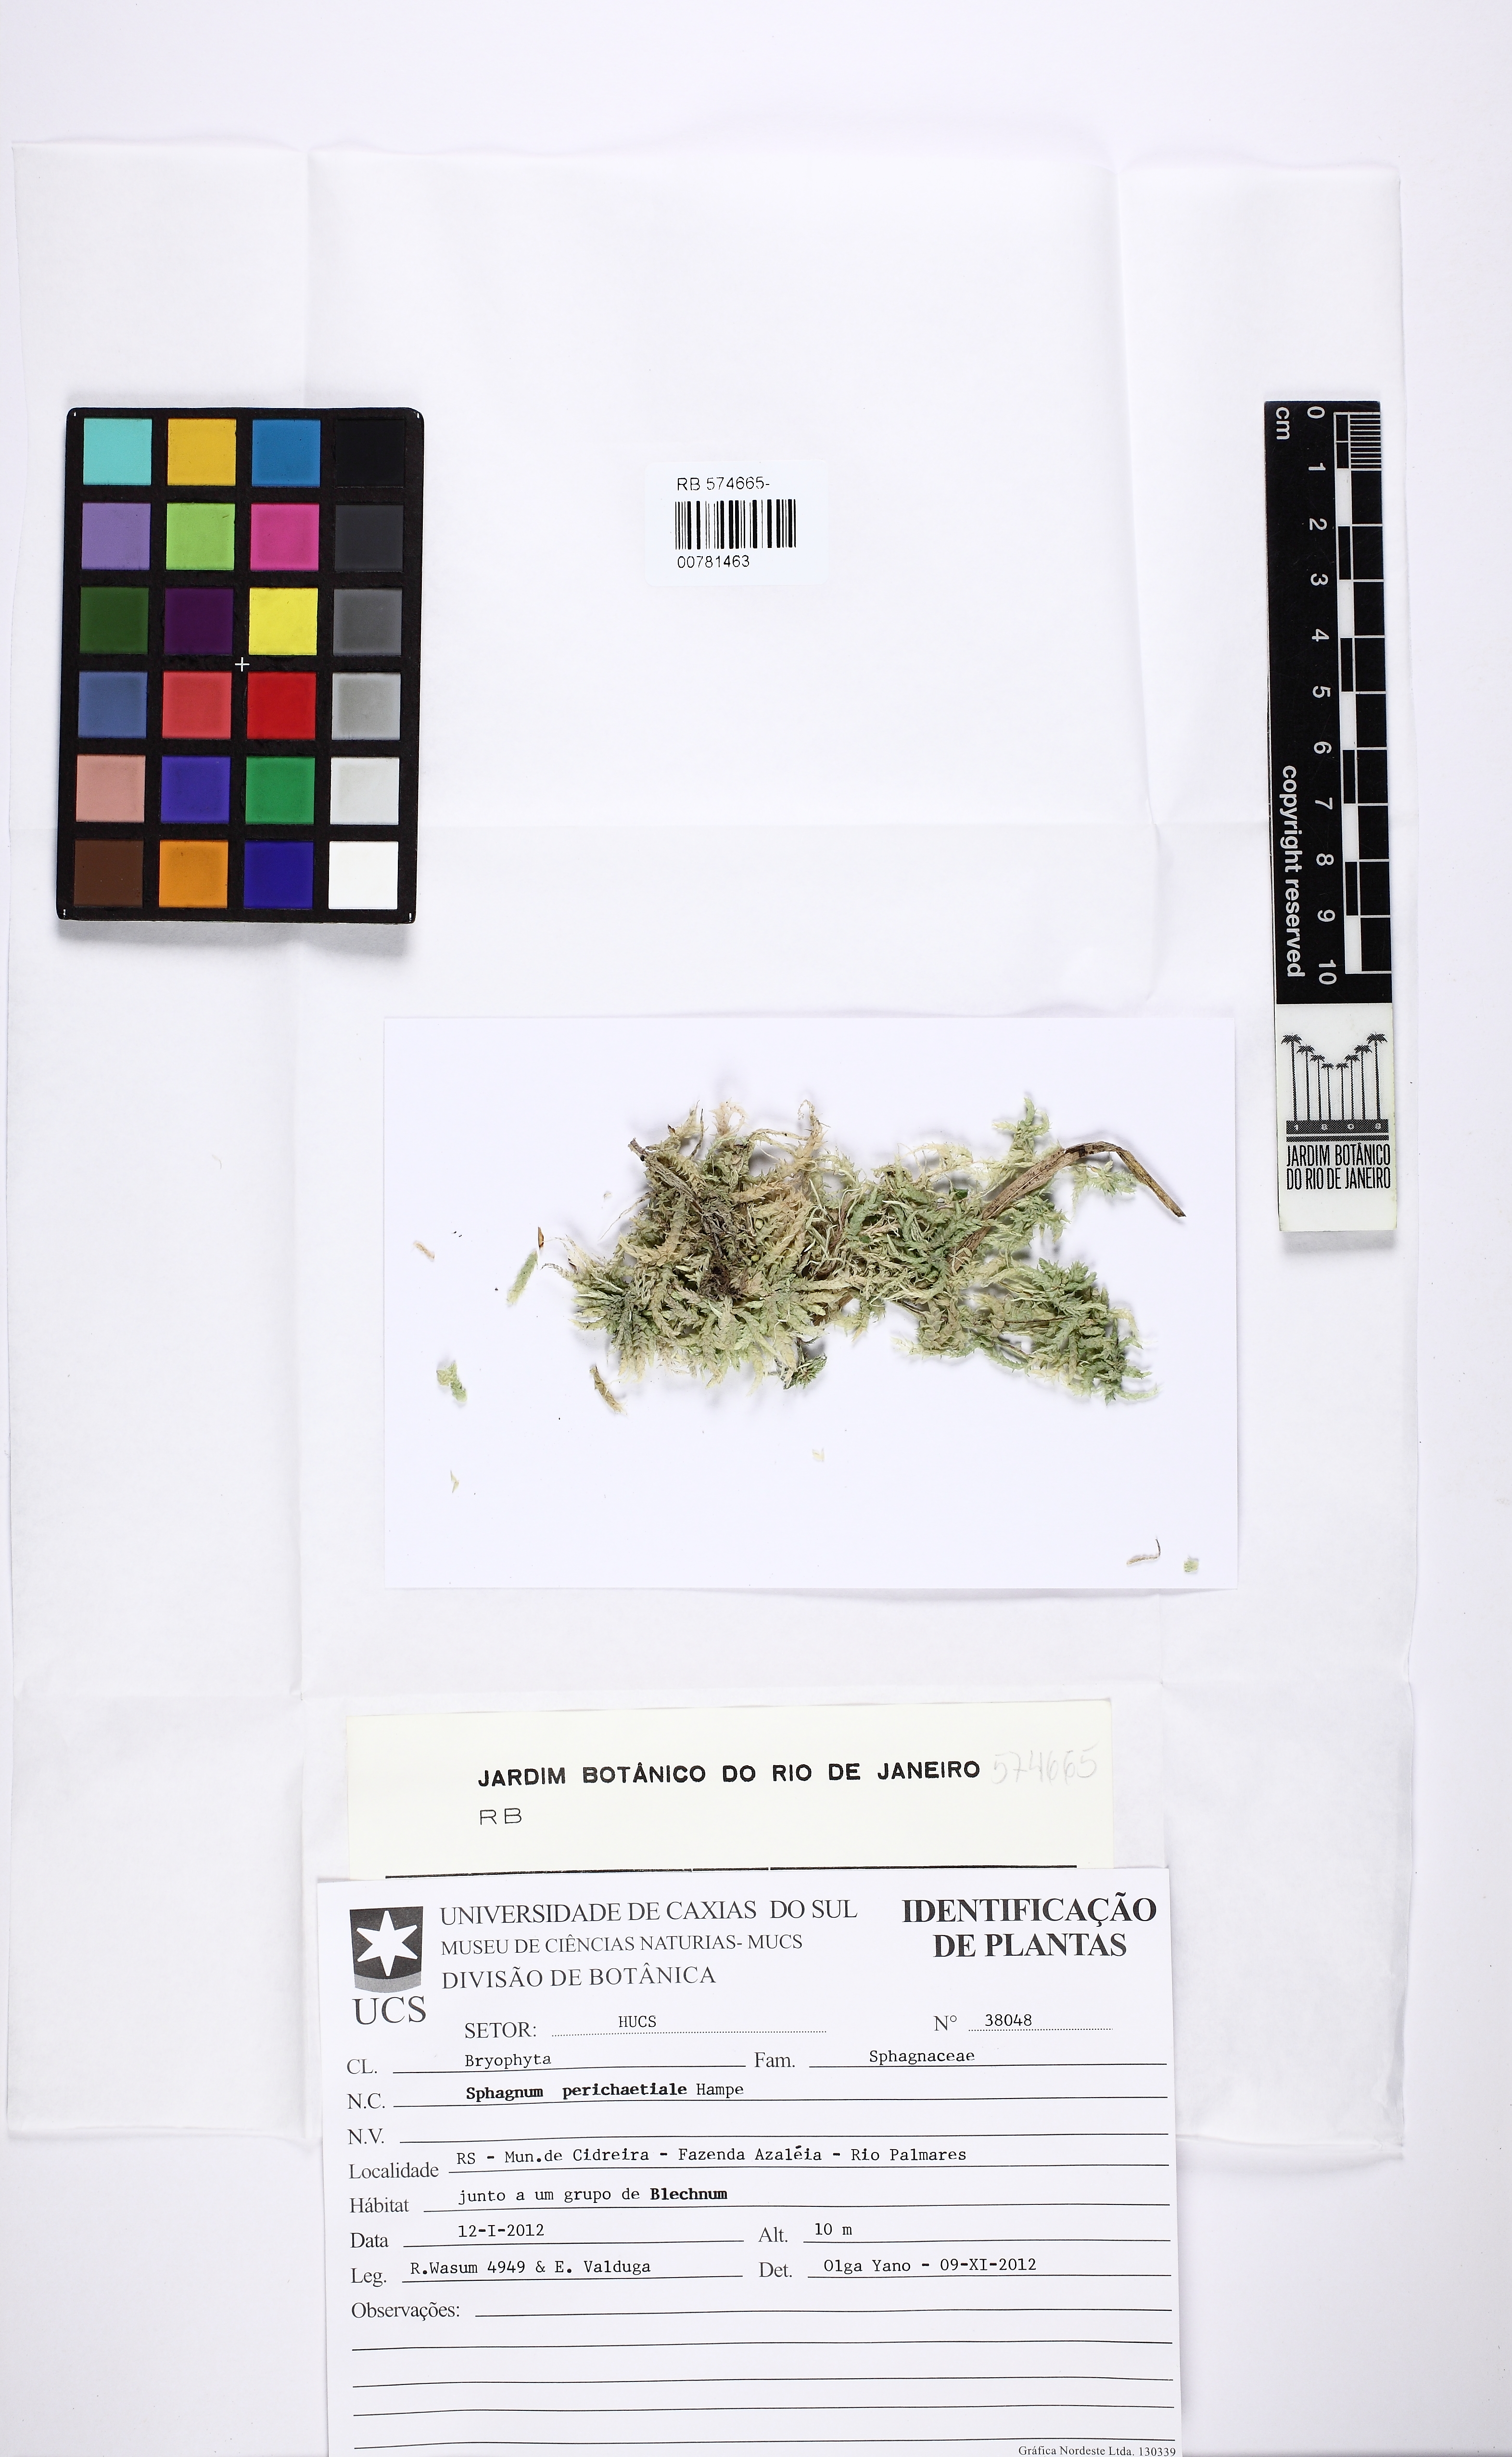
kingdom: Plantae
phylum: Bryophyta
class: Sphagnopsida
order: Sphagnales
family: Sphagnaceae
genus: Sphagnum
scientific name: Sphagnum perichaetiale
